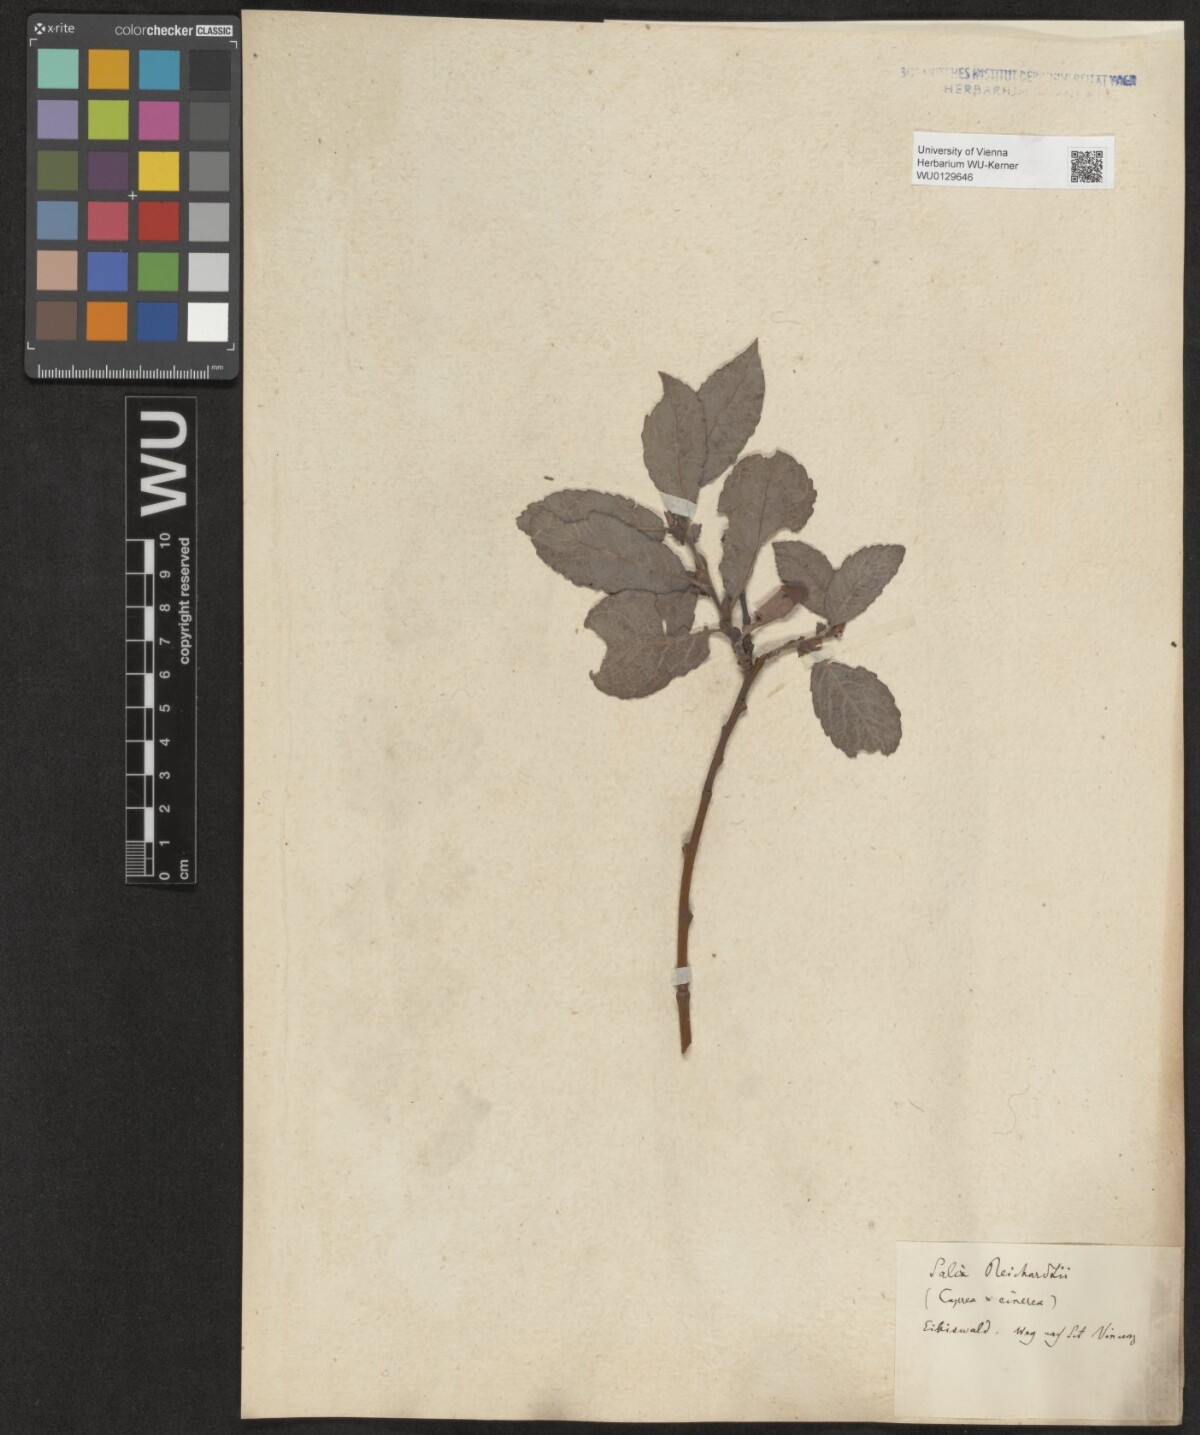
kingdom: Plantae
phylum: Tracheophyta
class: Magnoliopsida
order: Malpighiales
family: Salicaceae
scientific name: Salicaceae
